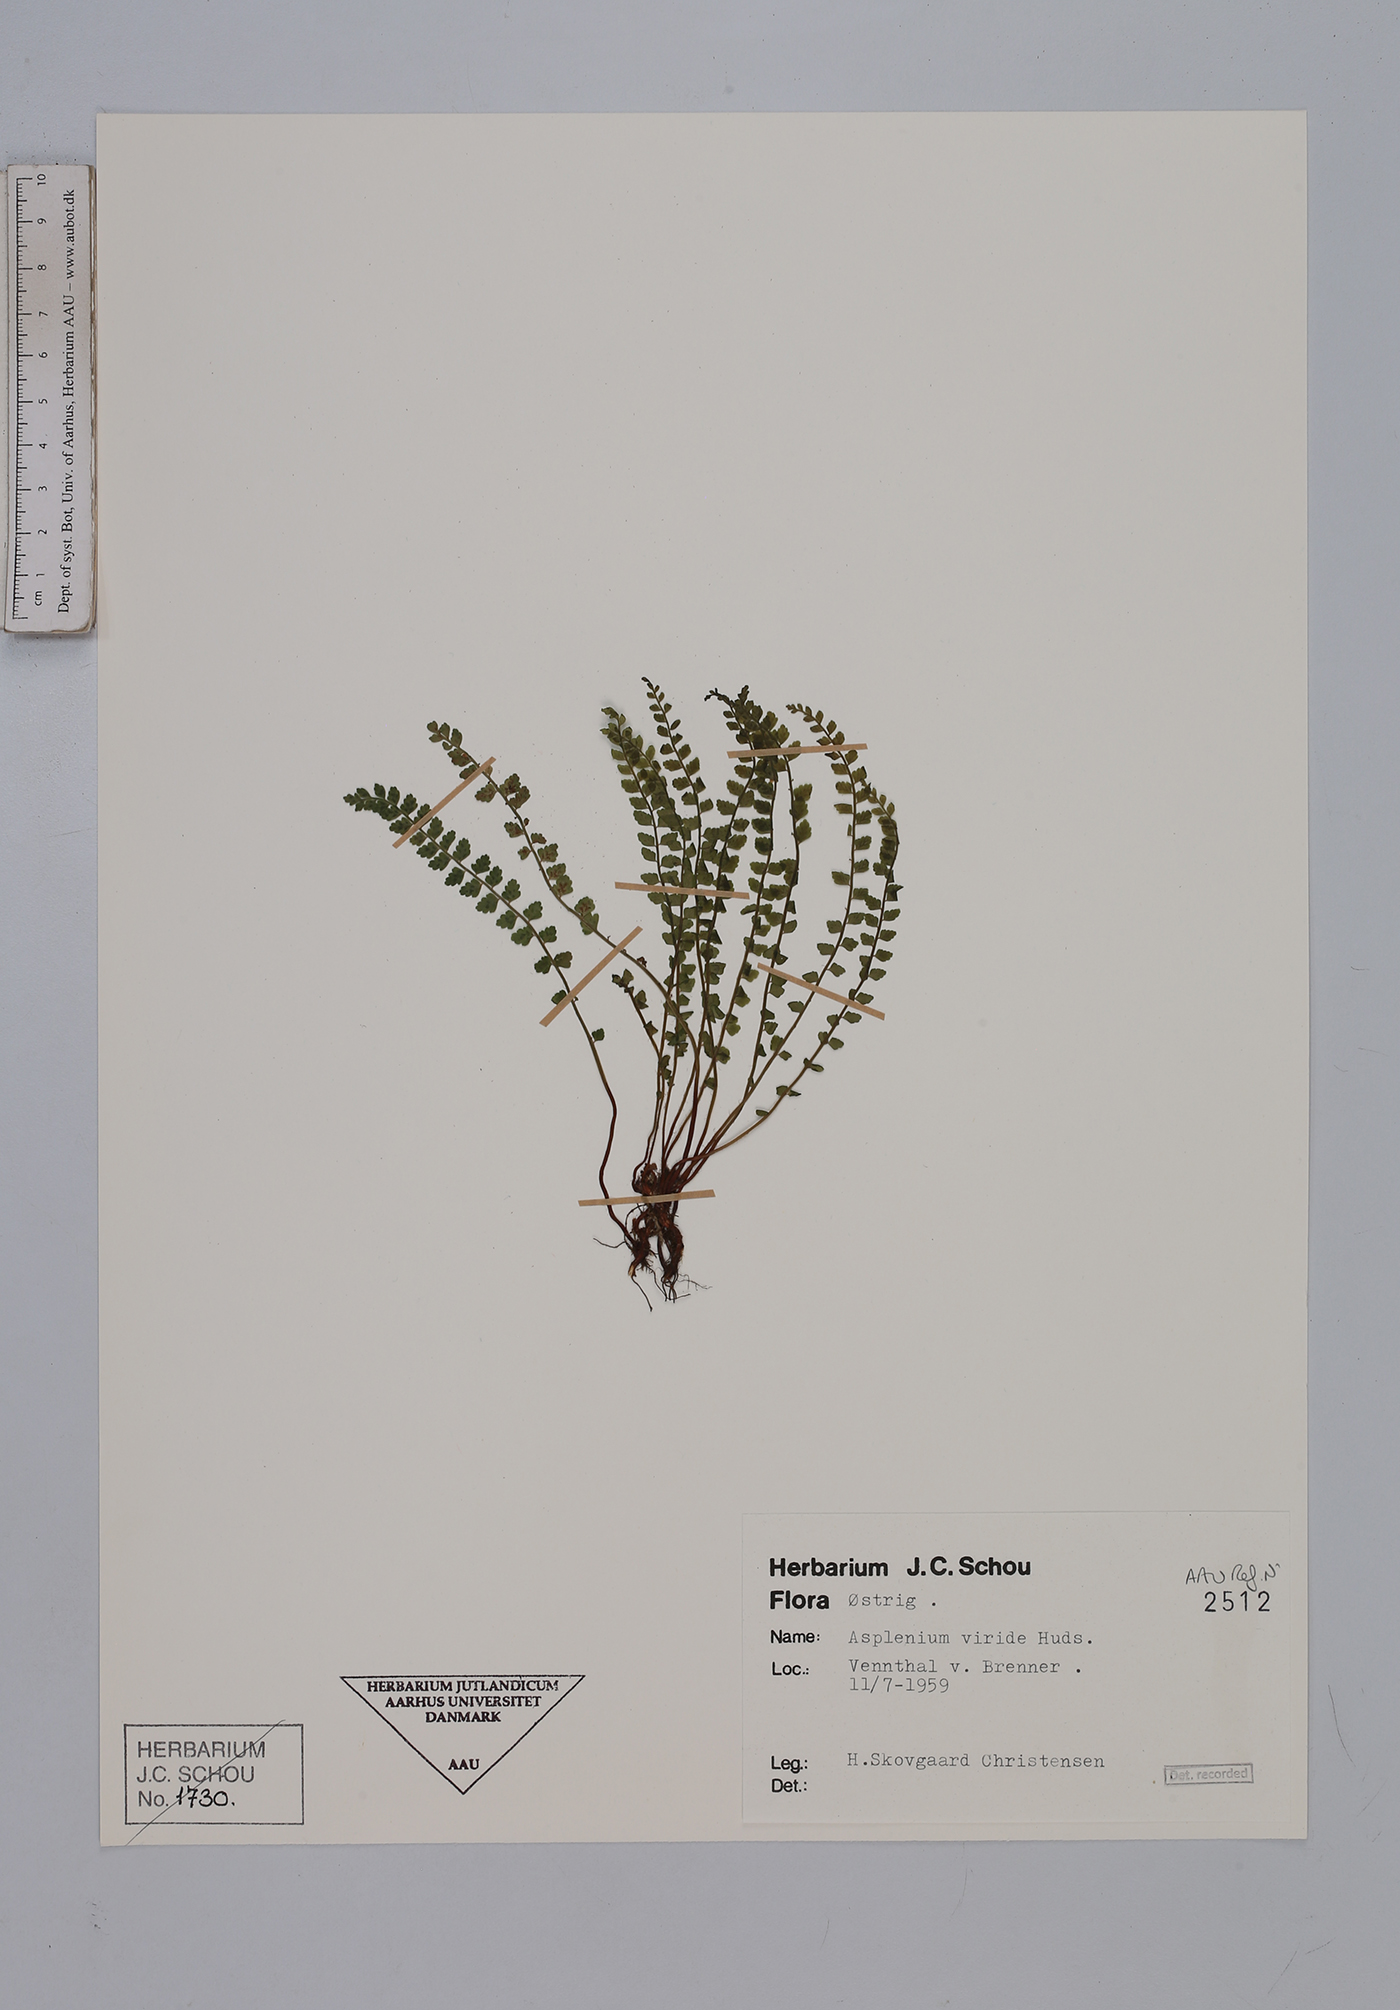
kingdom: Plantae
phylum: Tracheophyta
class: Polypodiopsida
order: Polypodiales
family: Aspleniaceae
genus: Asplenium
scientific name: Asplenium viride
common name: Green spleenwort
